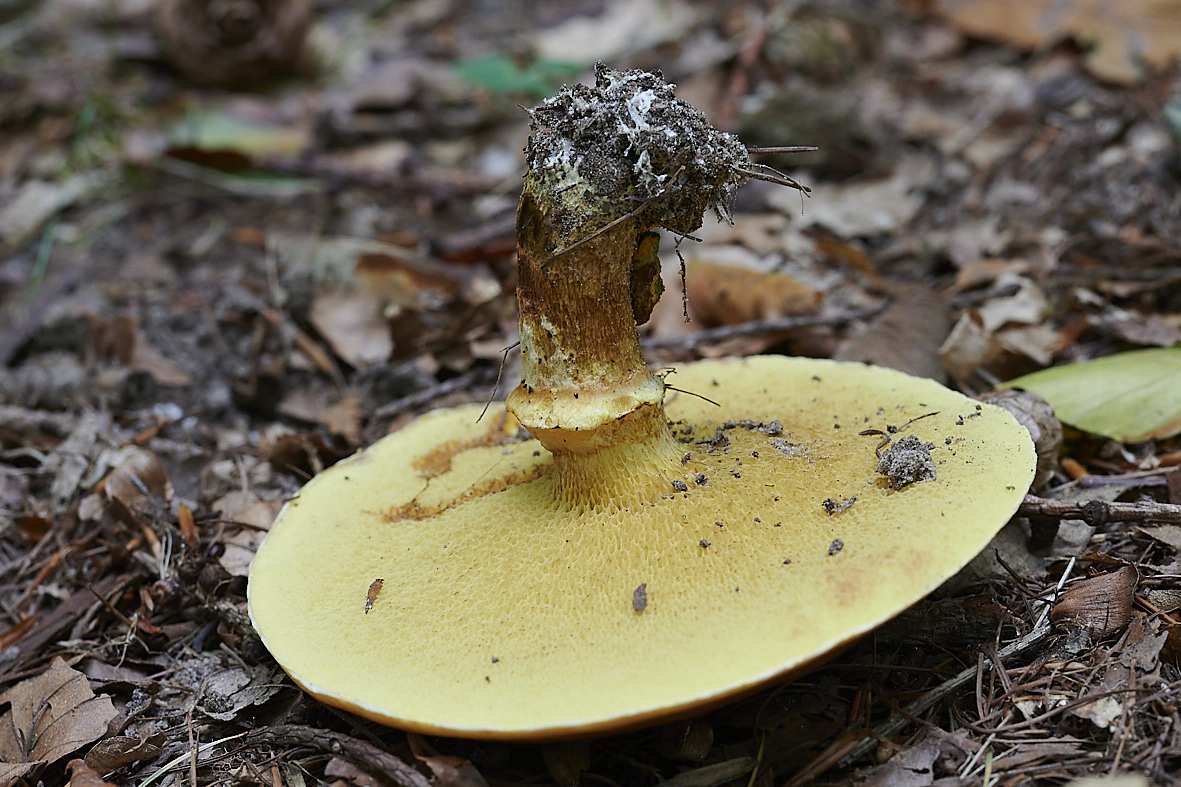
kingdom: Fungi
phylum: Basidiomycota
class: Agaricomycetes
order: Boletales
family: Suillaceae
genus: Suillus
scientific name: Suillus grevillei
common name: lærke-slimrørhat
